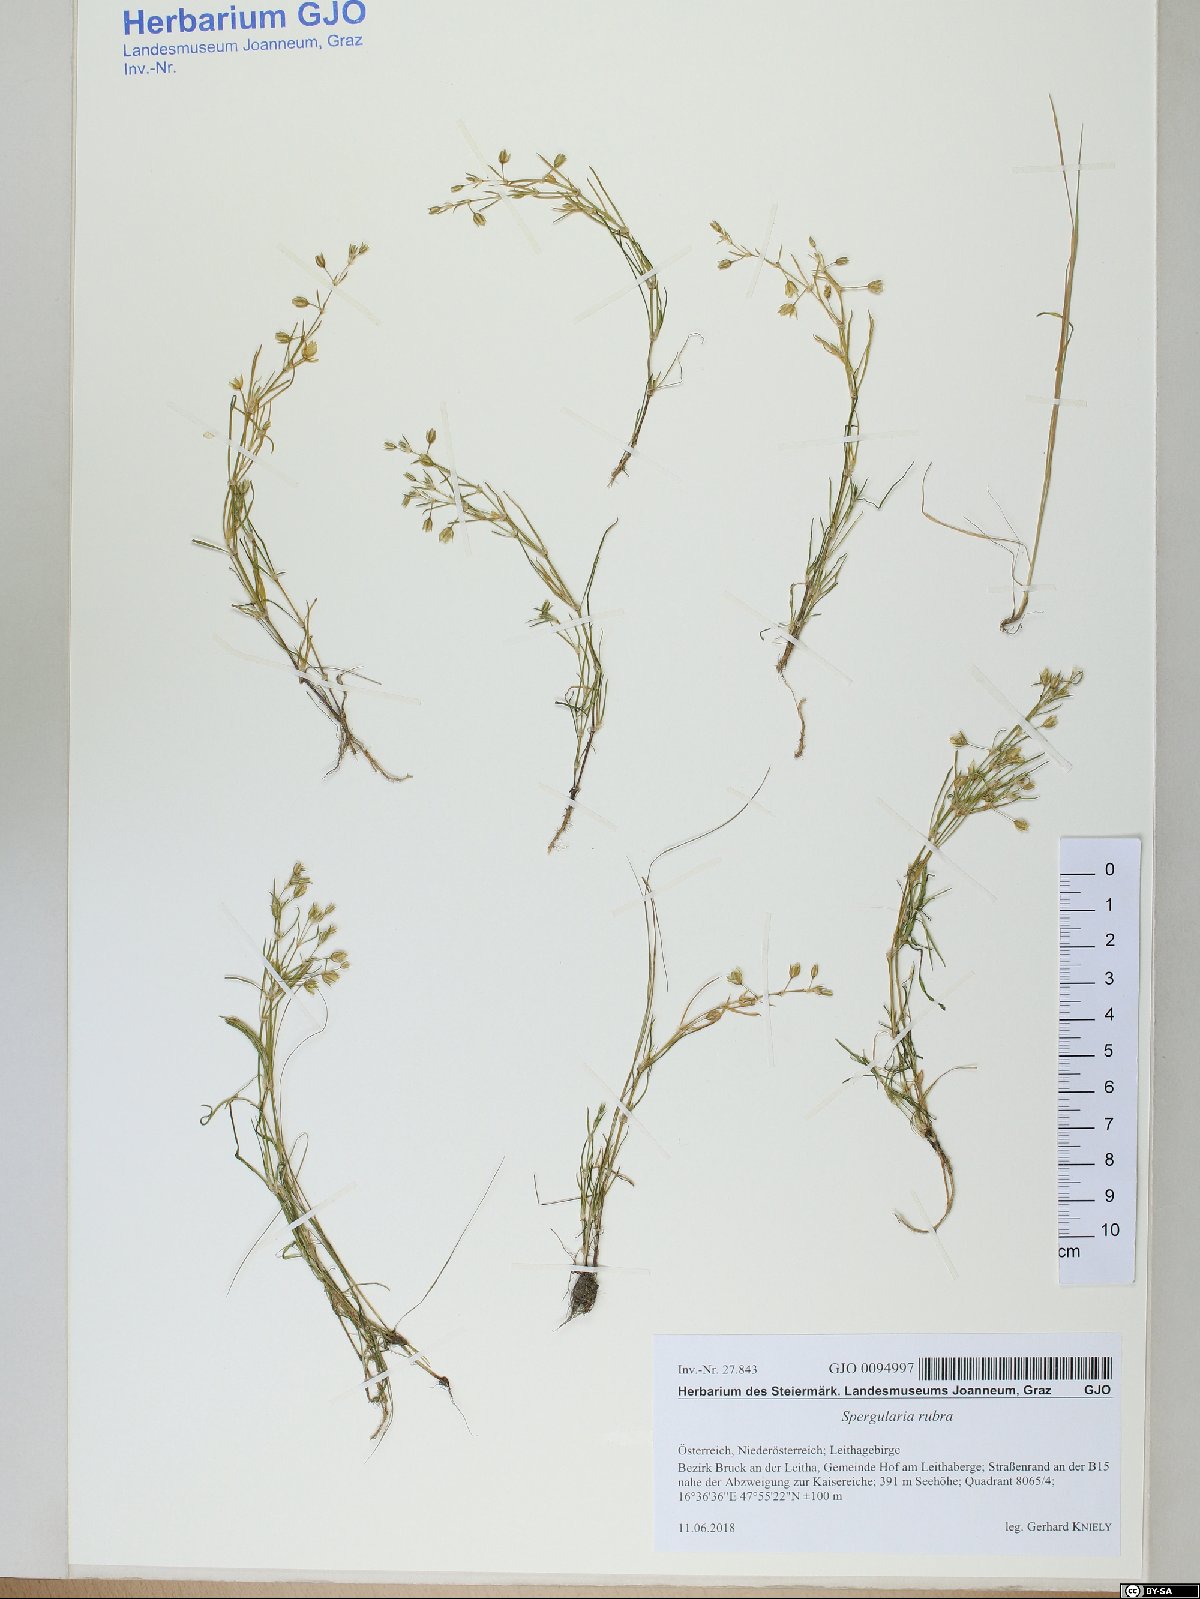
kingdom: Plantae
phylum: Tracheophyta
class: Magnoliopsida
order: Caryophyllales
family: Caryophyllaceae
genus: Spergularia
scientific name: Spergularia rubra
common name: Red sand-spurrey
